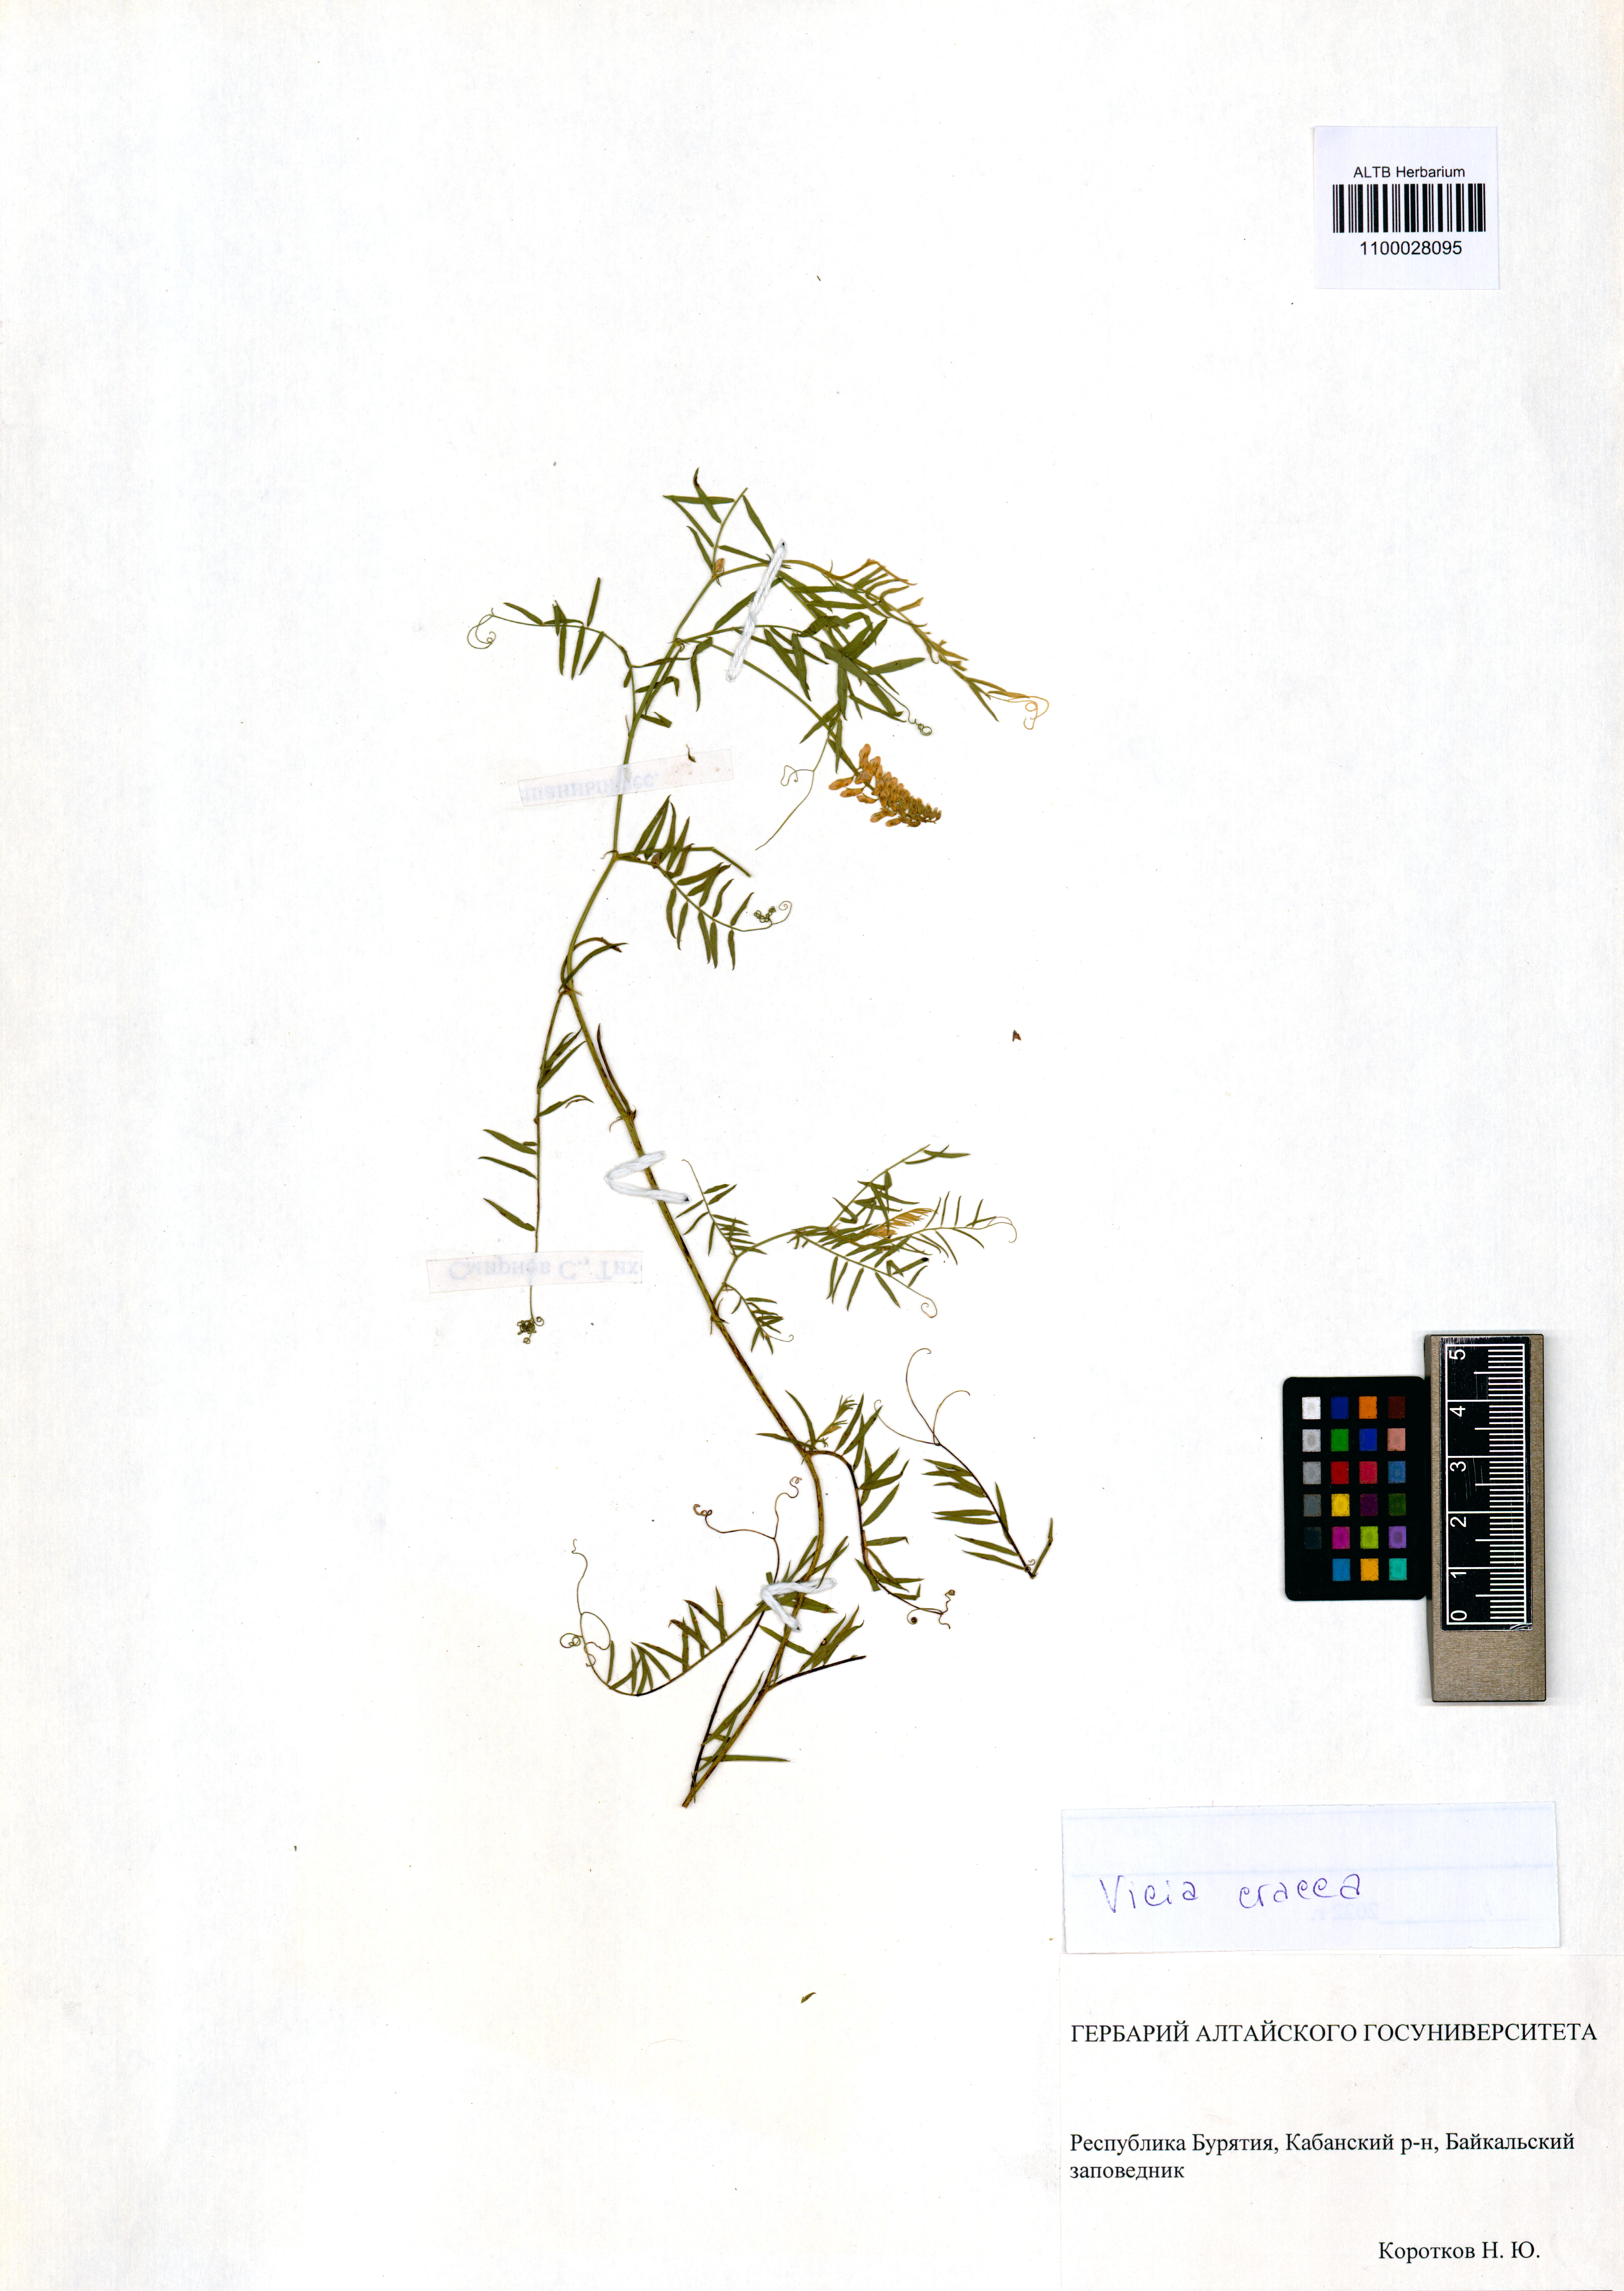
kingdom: Plantae
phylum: Tracheophyta
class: Magnoliopsida
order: Fabales
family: Fabaceae
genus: Vicia
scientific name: Vicia cracca
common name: Bird vetch
